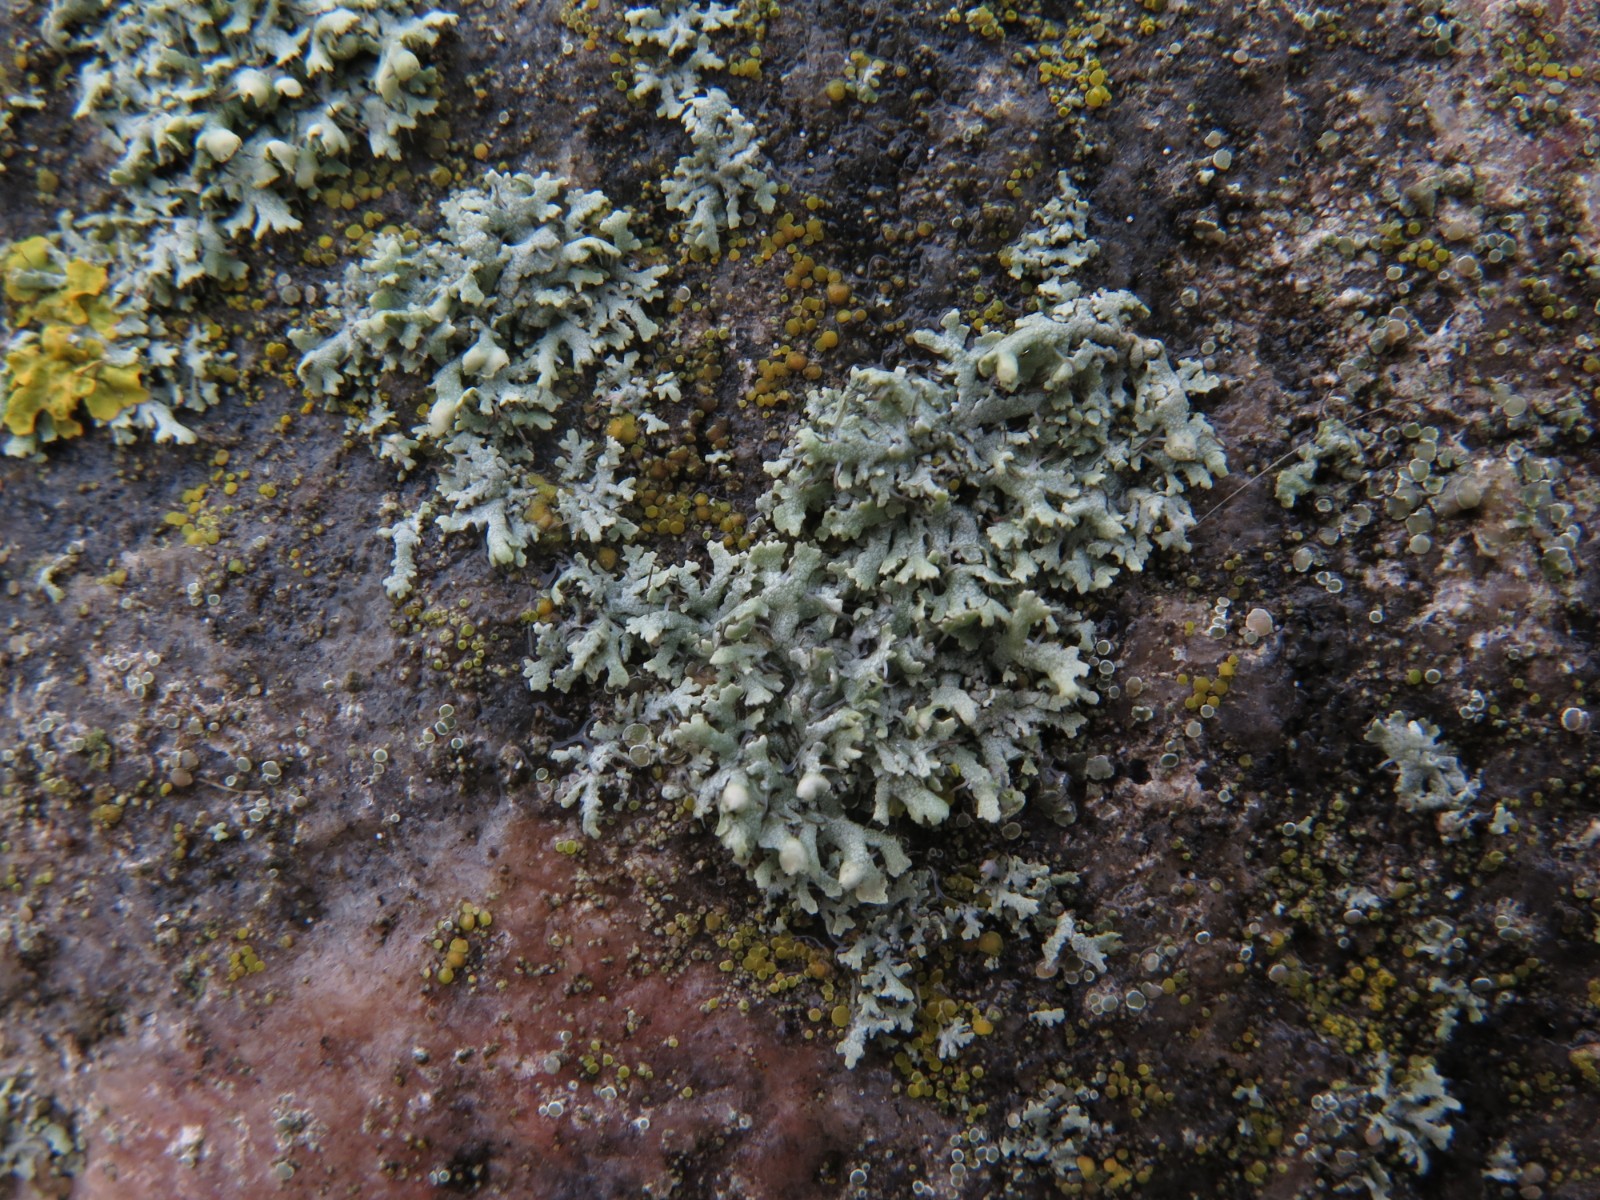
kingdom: Fungi
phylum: Ascomycota
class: Lecanoromycetes
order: Caliciales
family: Physciaceae
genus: Physcia
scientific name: Physcia adscendens
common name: hætte-rosetlav
